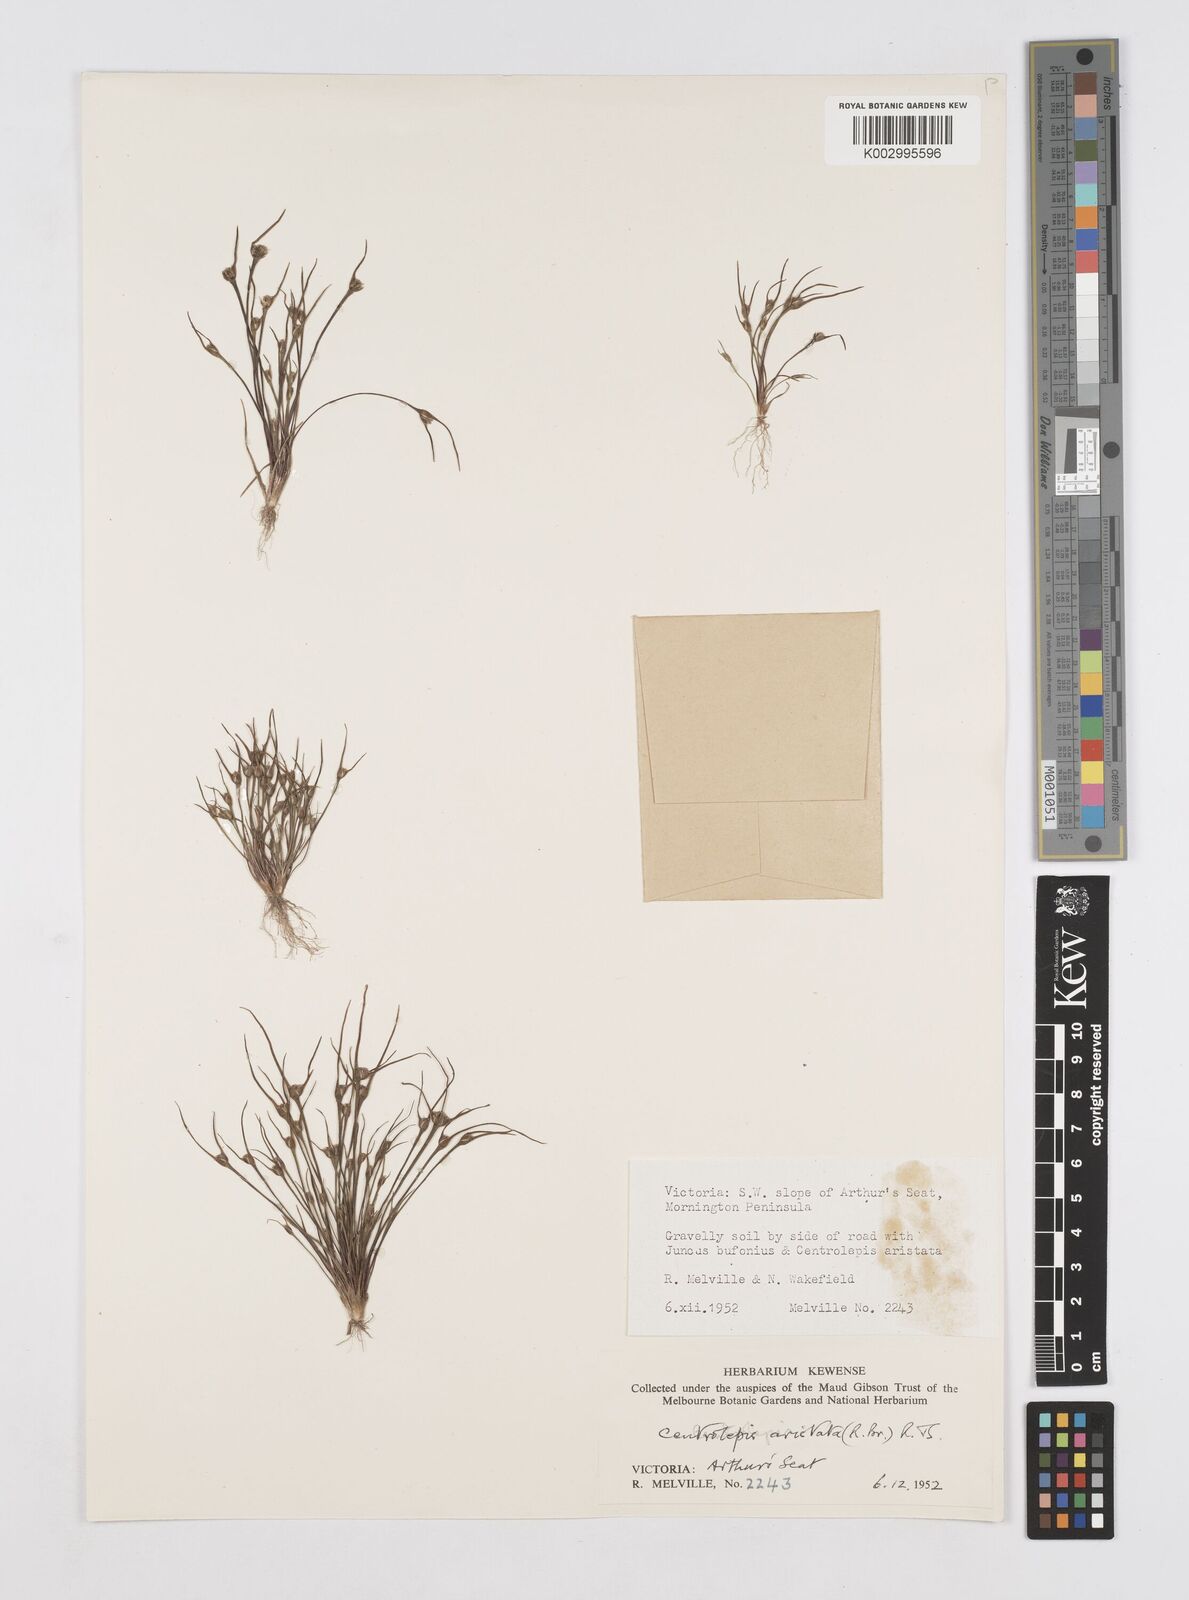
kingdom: Plantae
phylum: Tracheophyta
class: Liliopsida
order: Poales
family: Restionaceae
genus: Centrolepis
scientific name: Centrolepis aristata
